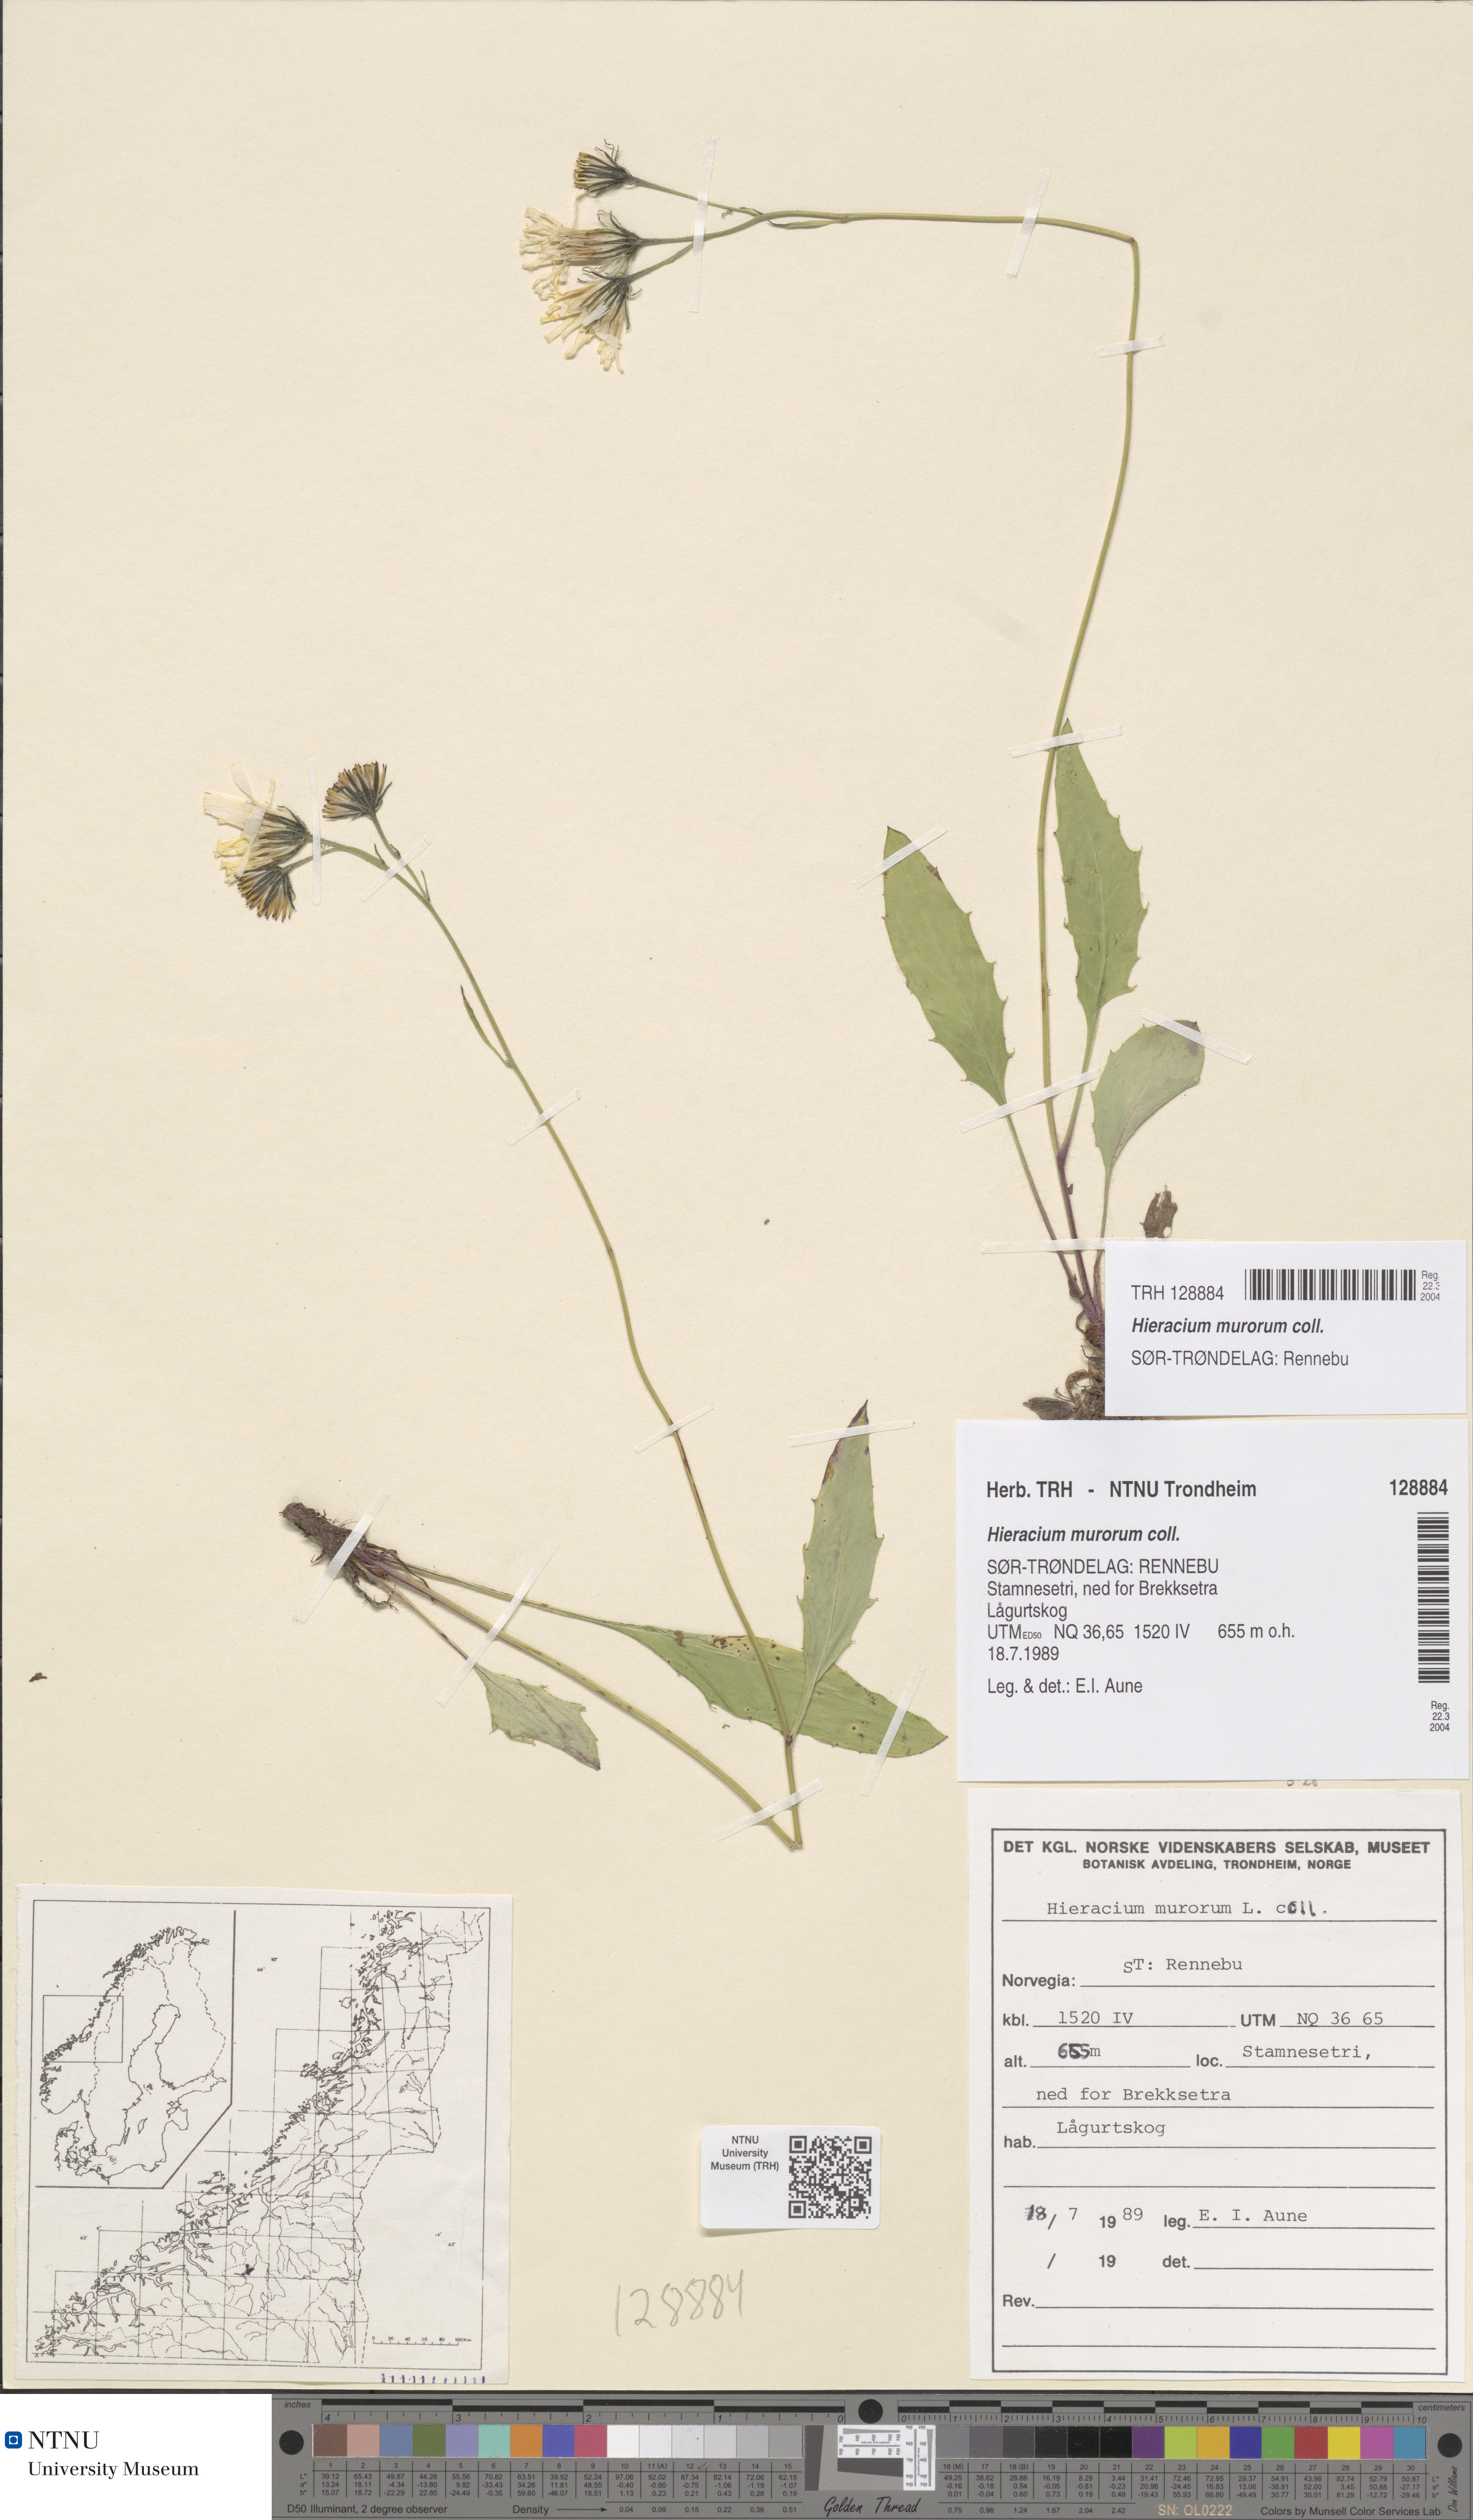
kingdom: Plantae
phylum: Tracheophyta
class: Magnoliopsida
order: Asterales
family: Asteraceae
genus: Hieracium
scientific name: Hieracium murorum
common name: Wall hawkweed
